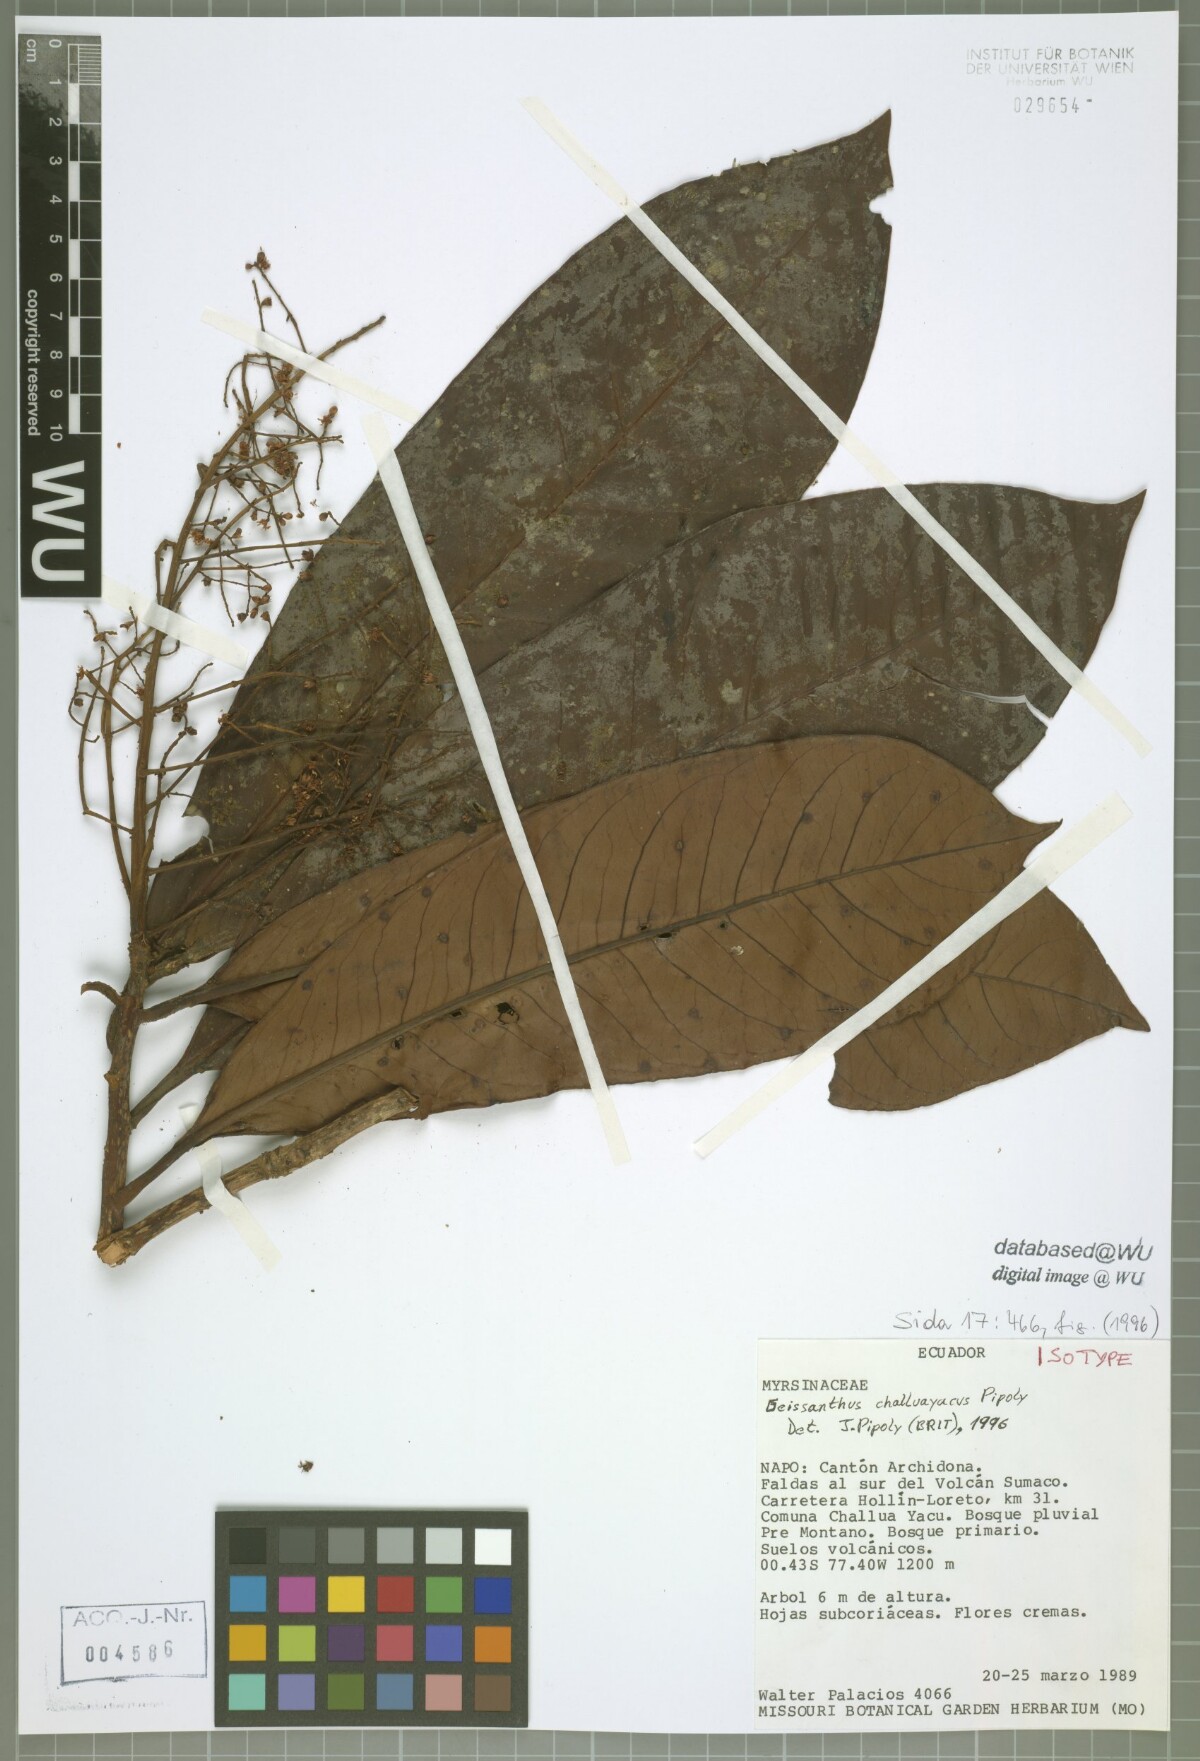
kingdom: Plantae
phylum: Tracheophyta
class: Magnoliopsida
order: Ericales
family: Primulaceae
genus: Geissanthus
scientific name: Geissanthus challuayacus
